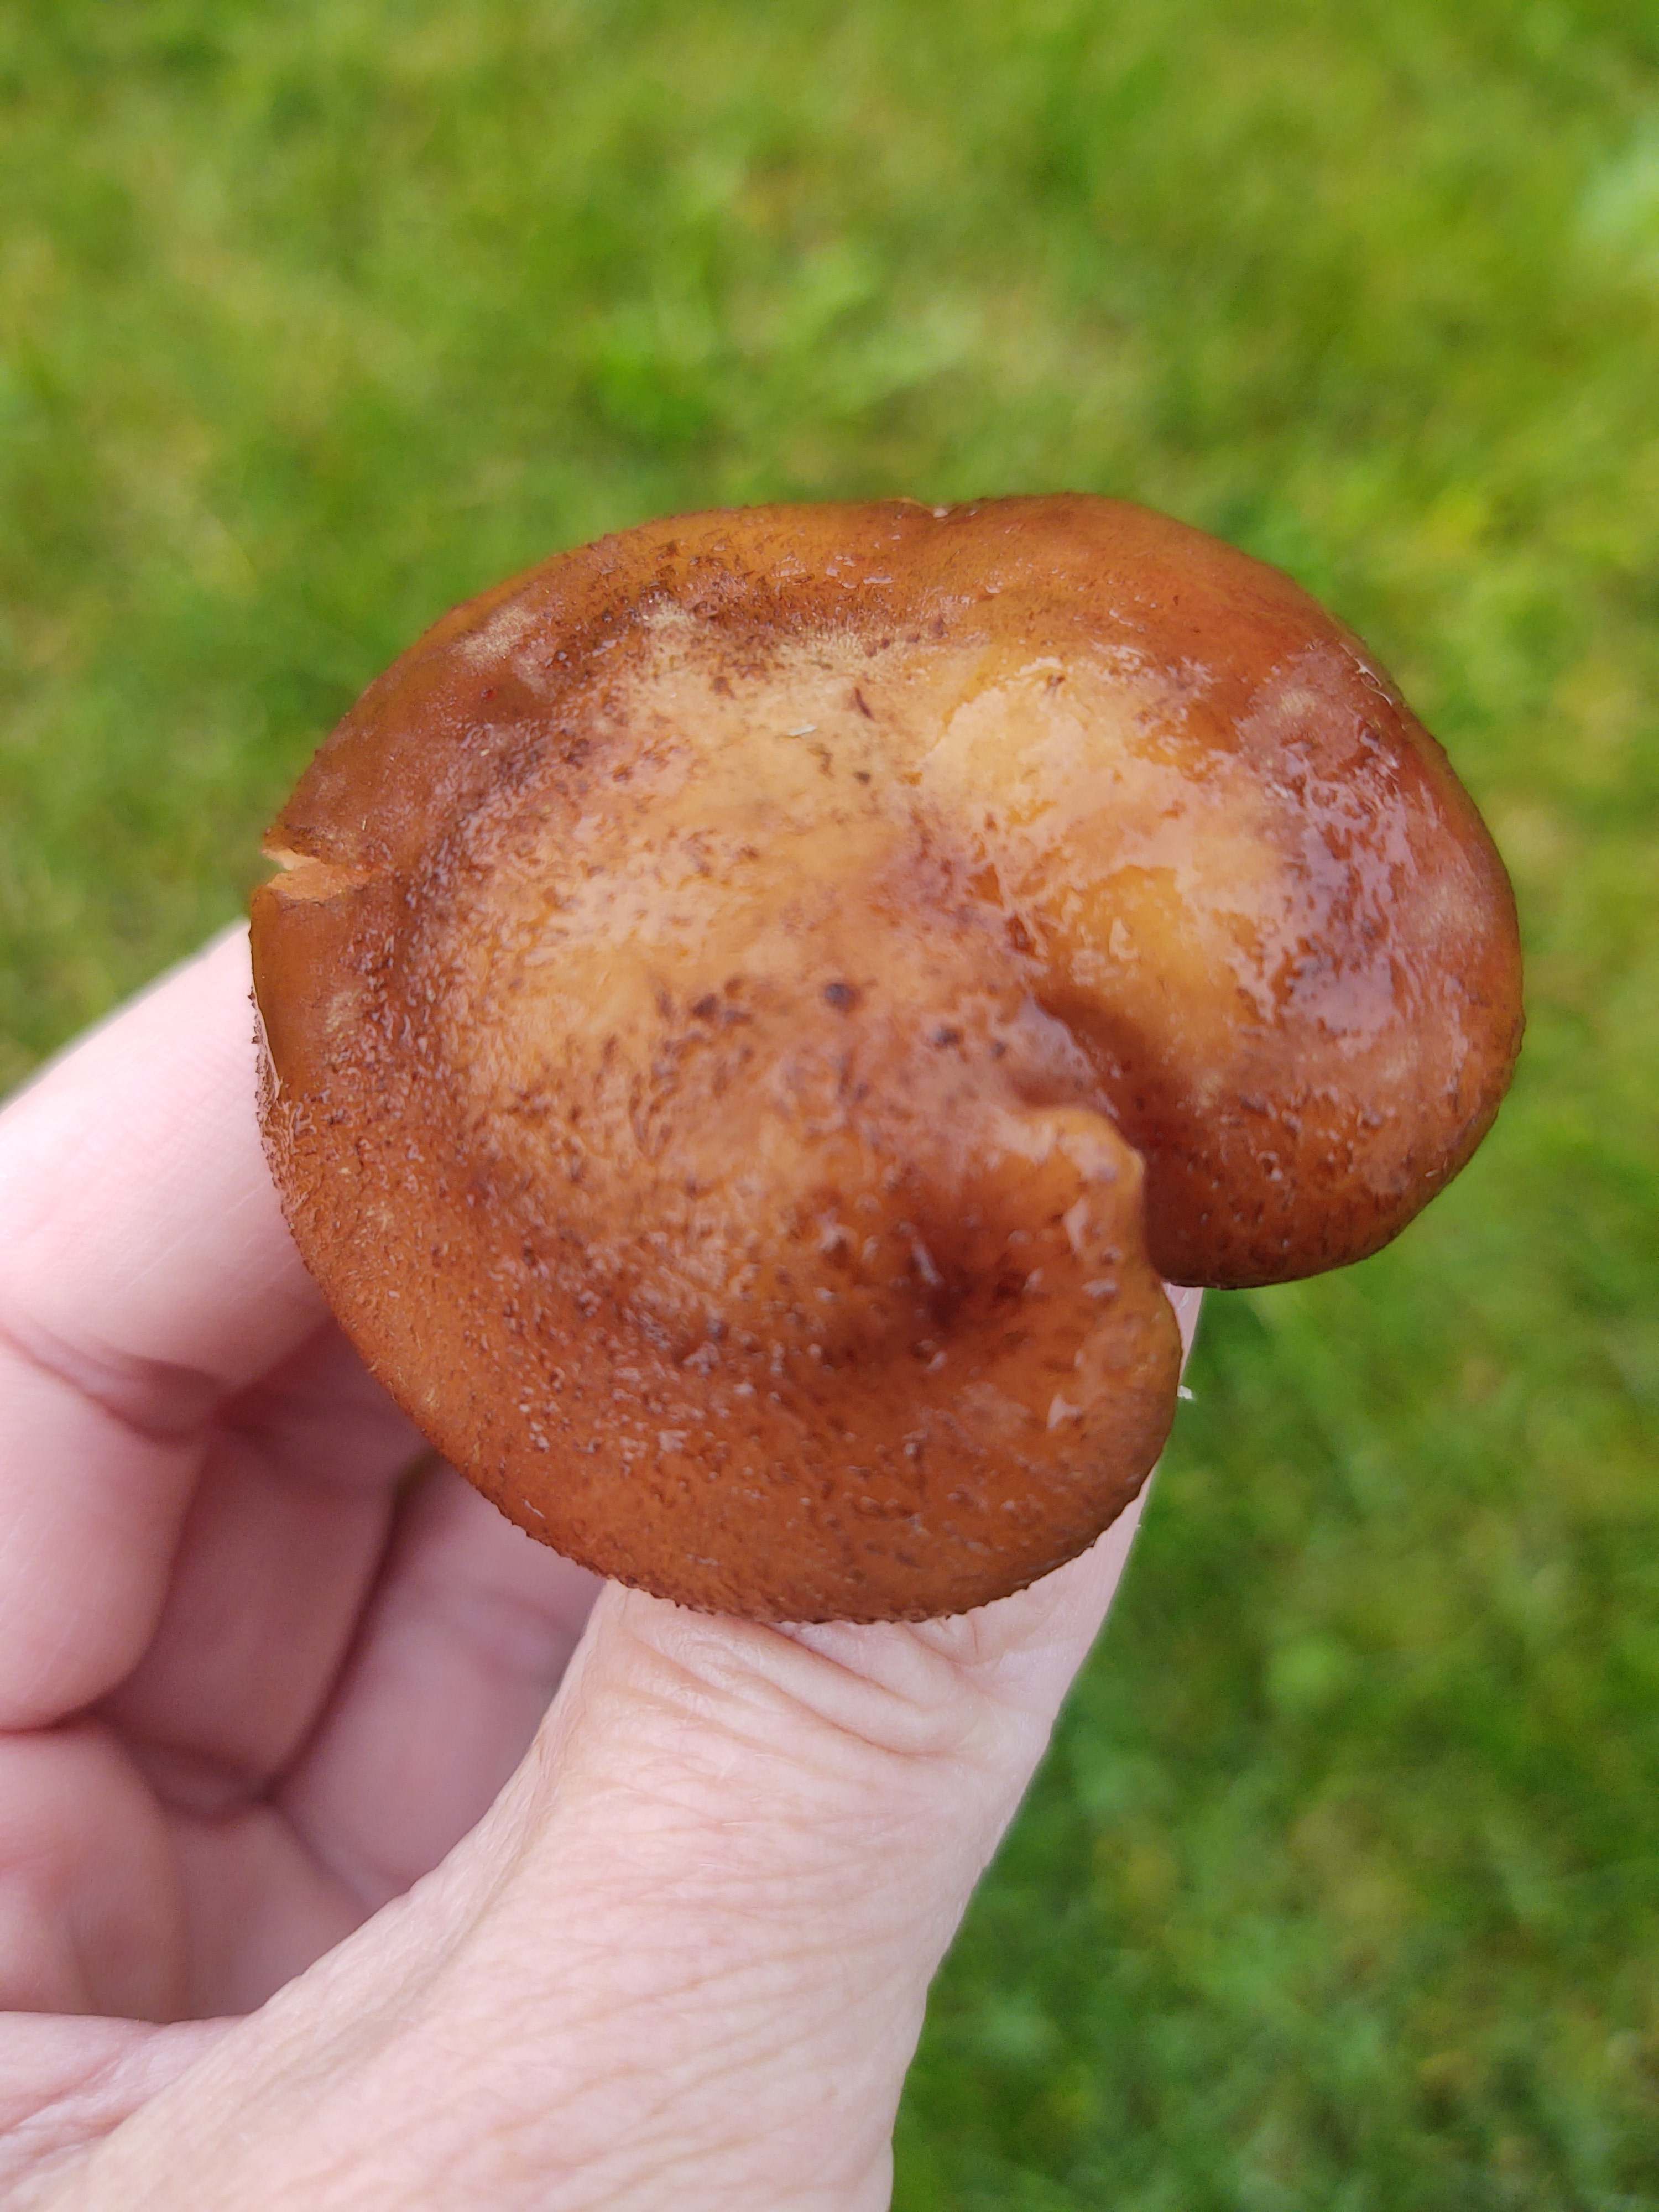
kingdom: Fungi
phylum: Basidiomycota
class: Agaricomycetes
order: Agaricales
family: Physalacriaceae
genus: Armillaria
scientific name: Armillaria lutea
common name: køllestokket honningsvamp
